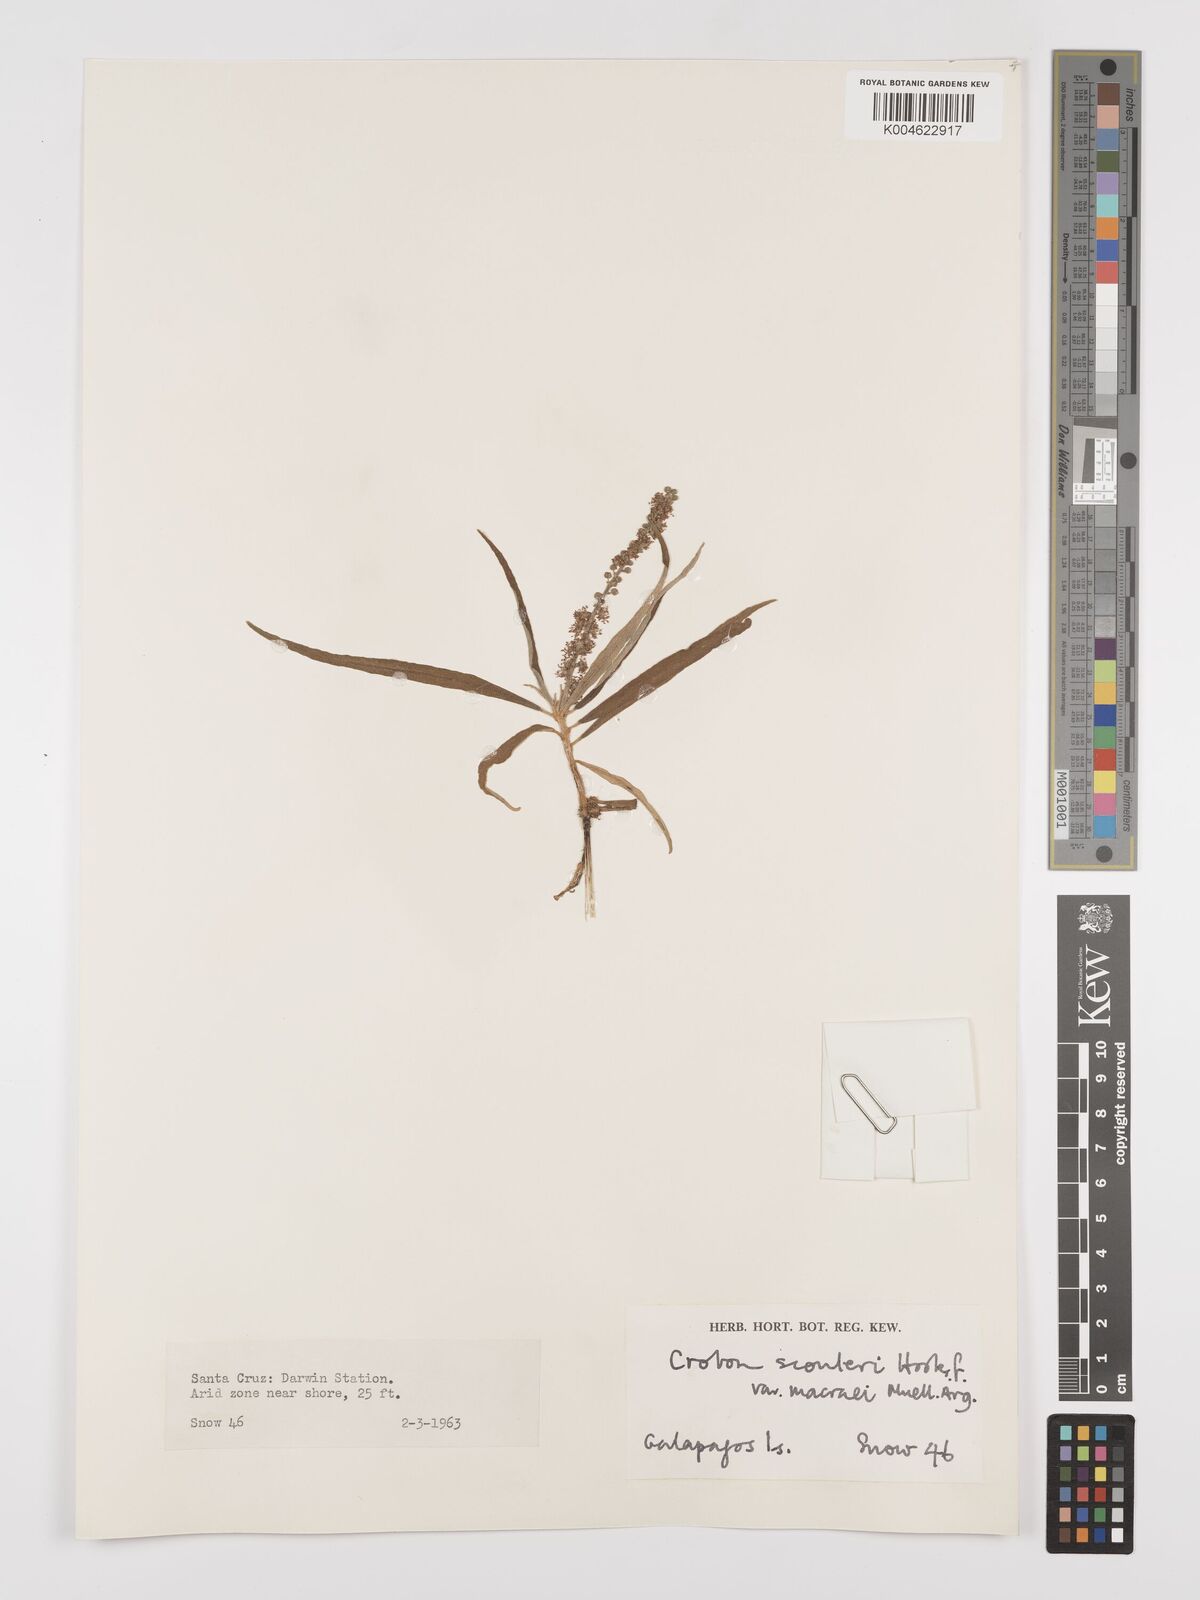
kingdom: Plantae
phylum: Tracheophyta
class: Magnoliopsida
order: Malpighiales
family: Euphorbiaceae
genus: Croton
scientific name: Croton scouleri
